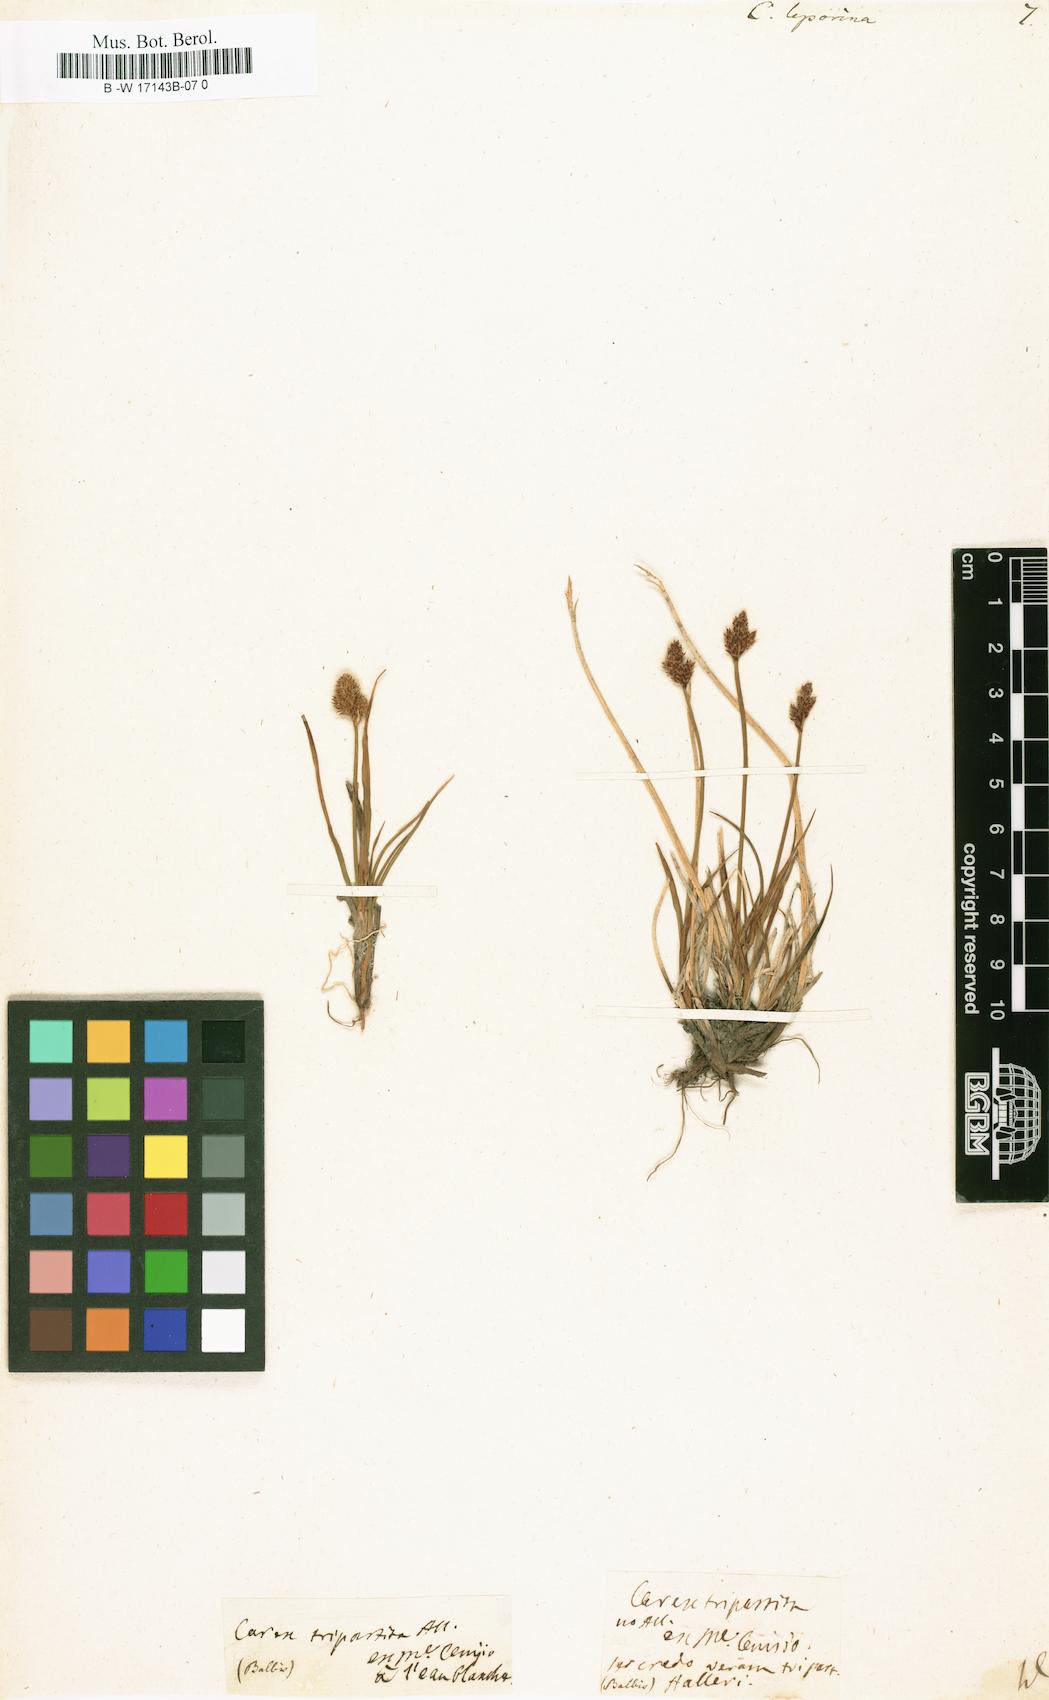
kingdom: Plantae
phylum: Tracheophyta
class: Liliopsida
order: Poales
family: Cyperaceae
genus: Carex
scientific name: Carex leporina
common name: Oval sedge
